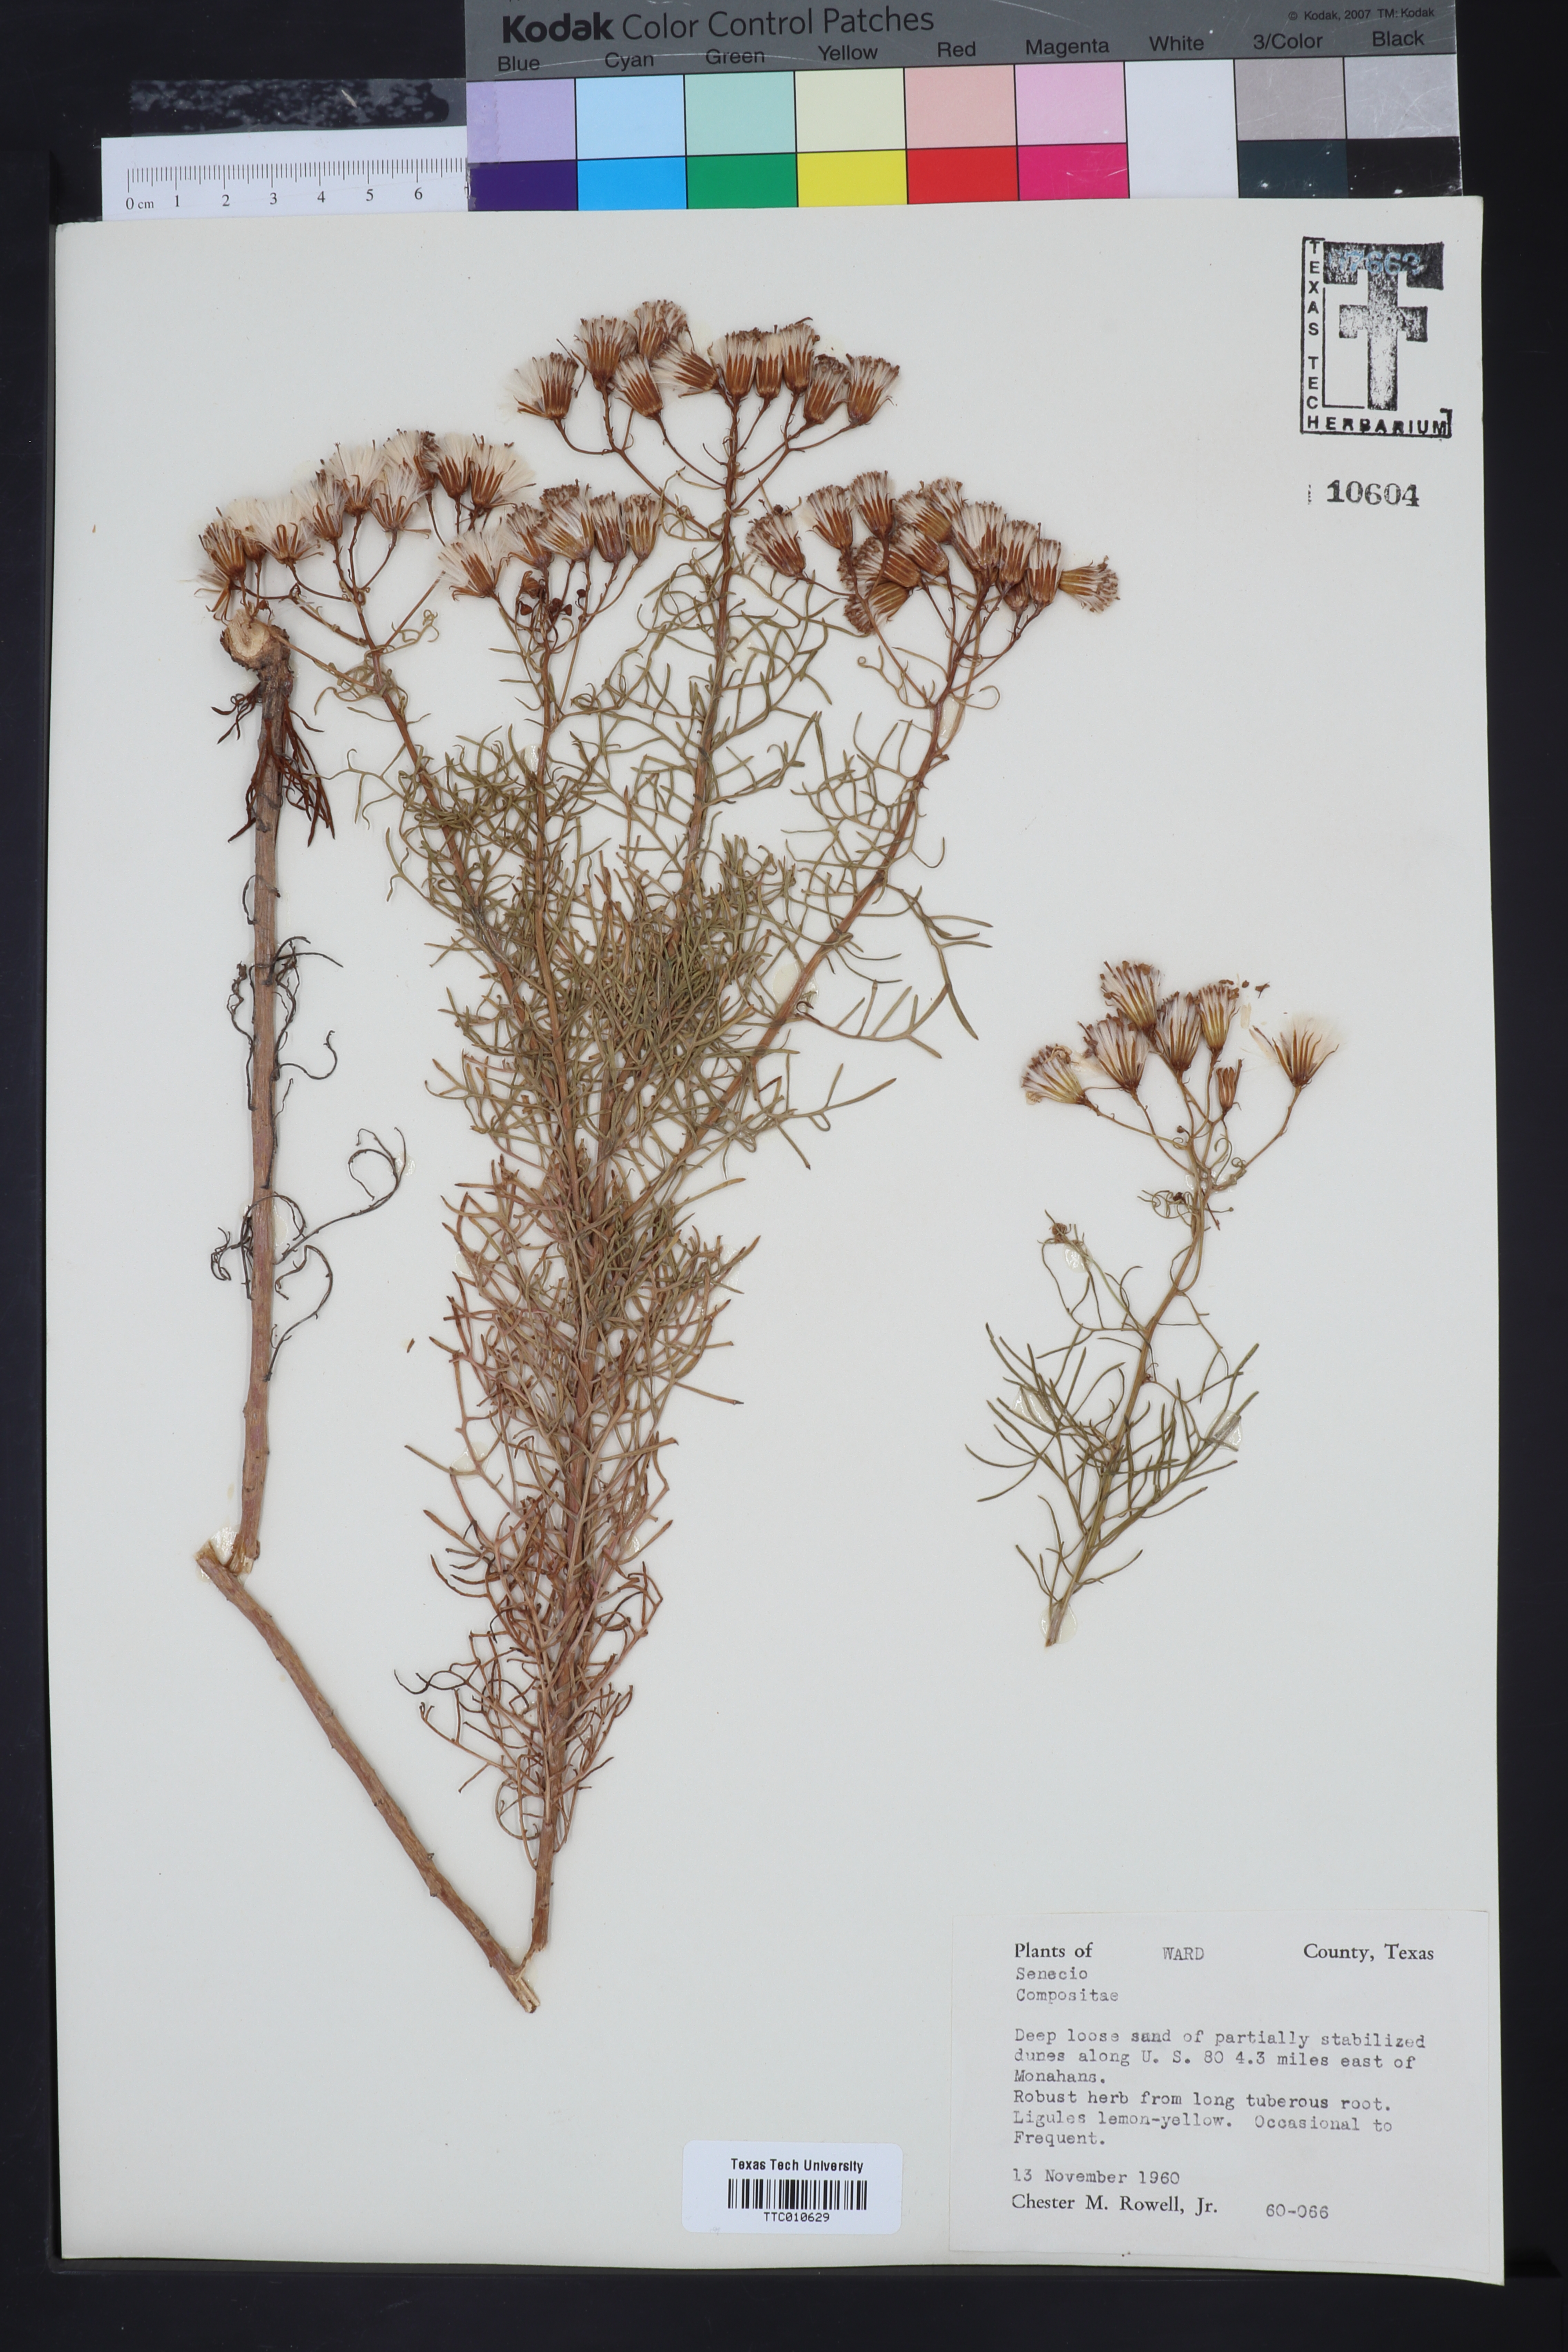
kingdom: Plantae
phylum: Tracheophyta
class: Magnoliopsida
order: Asterales
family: Asteraceae
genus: Senecio
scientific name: Senecio
